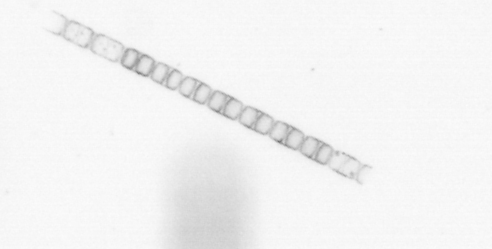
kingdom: Chromista
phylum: Ochrophyta
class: Bacillariophyceae
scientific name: Bacillariophyceae
